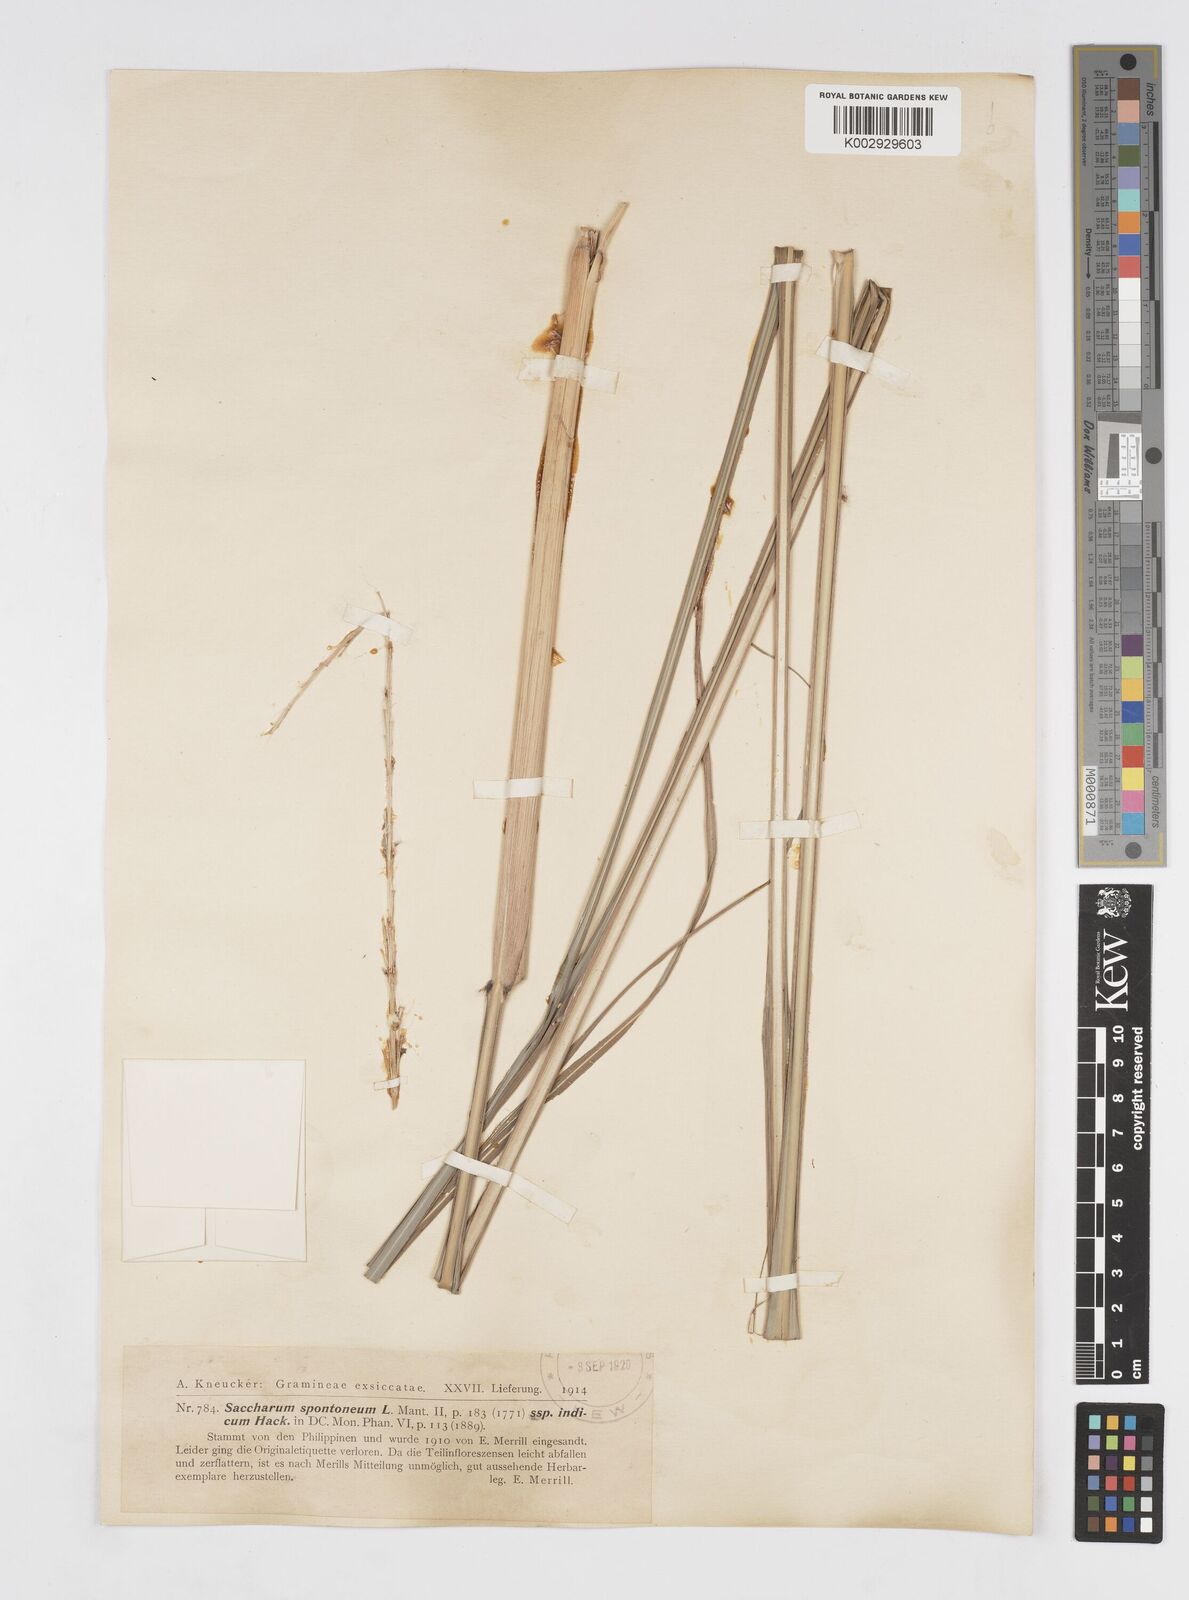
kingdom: Plantae
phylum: Tracheophyta
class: Liliopsida
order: Poales
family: Poaceae
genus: Saccharum
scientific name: Saccharum spontaneum
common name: Wild sugarcane
